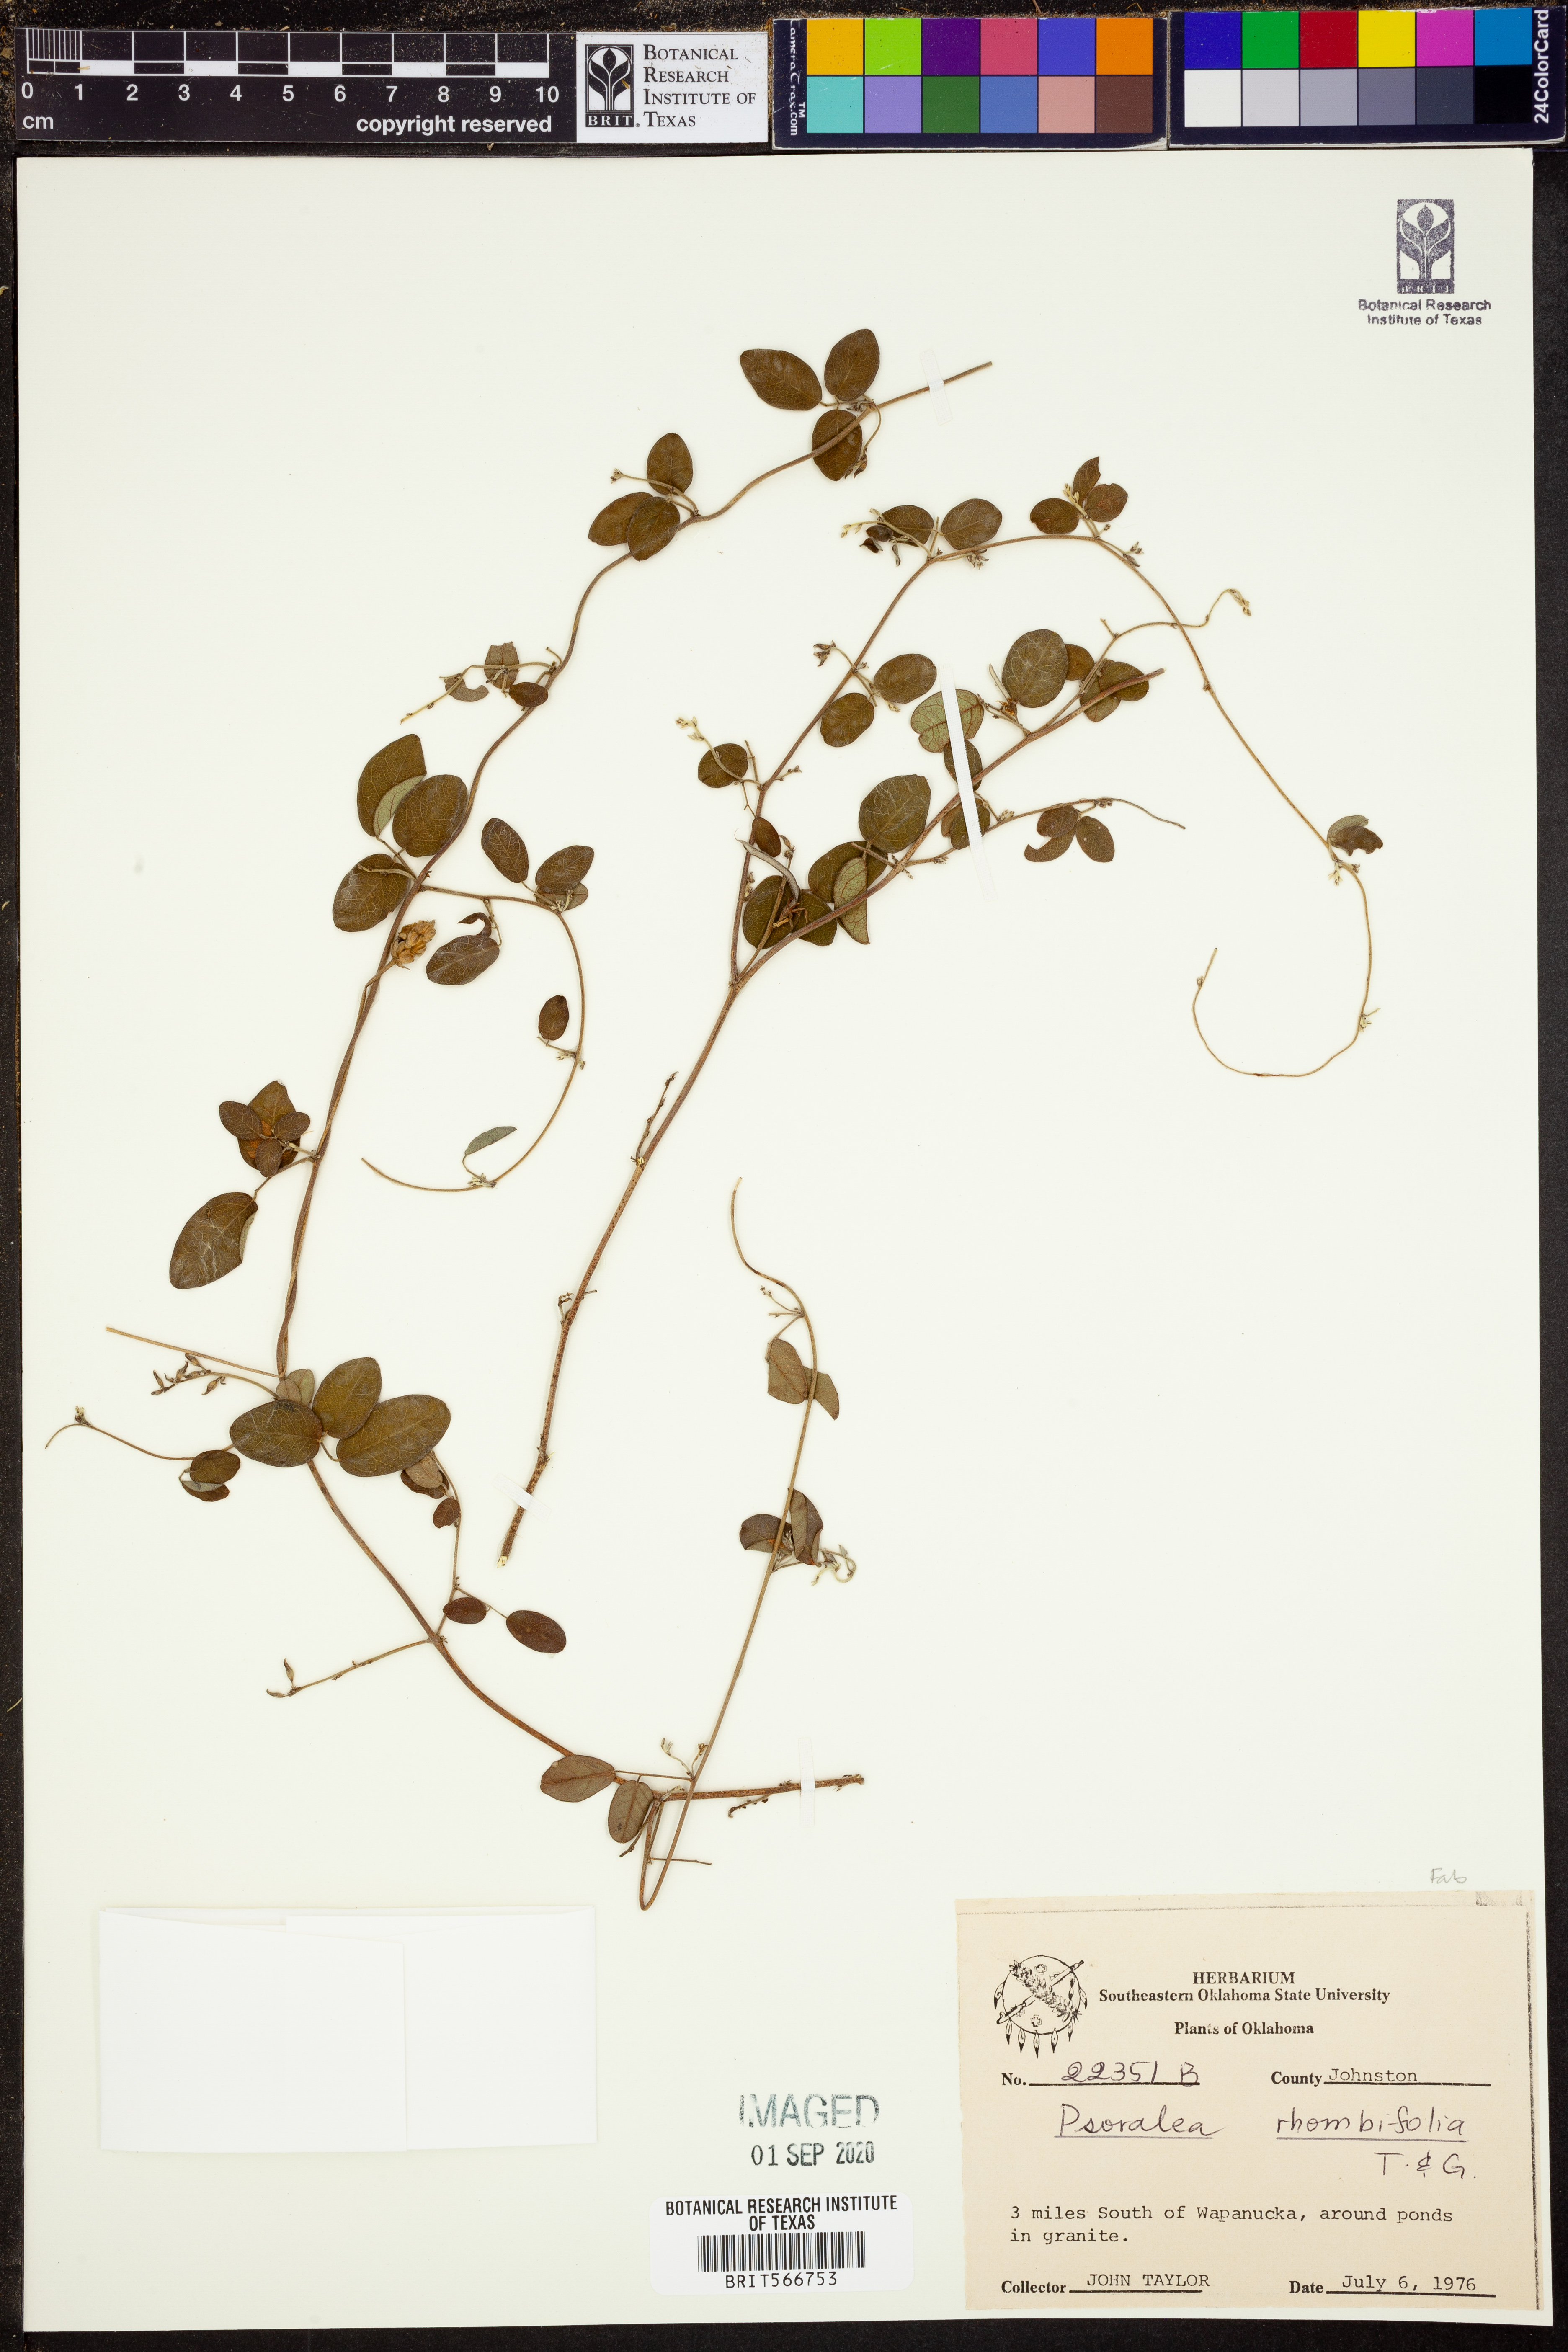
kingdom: Plantae
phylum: Tracheophyta
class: Magnoliopsida
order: Fabales
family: Fabaceae
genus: Pediomelum
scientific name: Pediomelum rhombifolium
